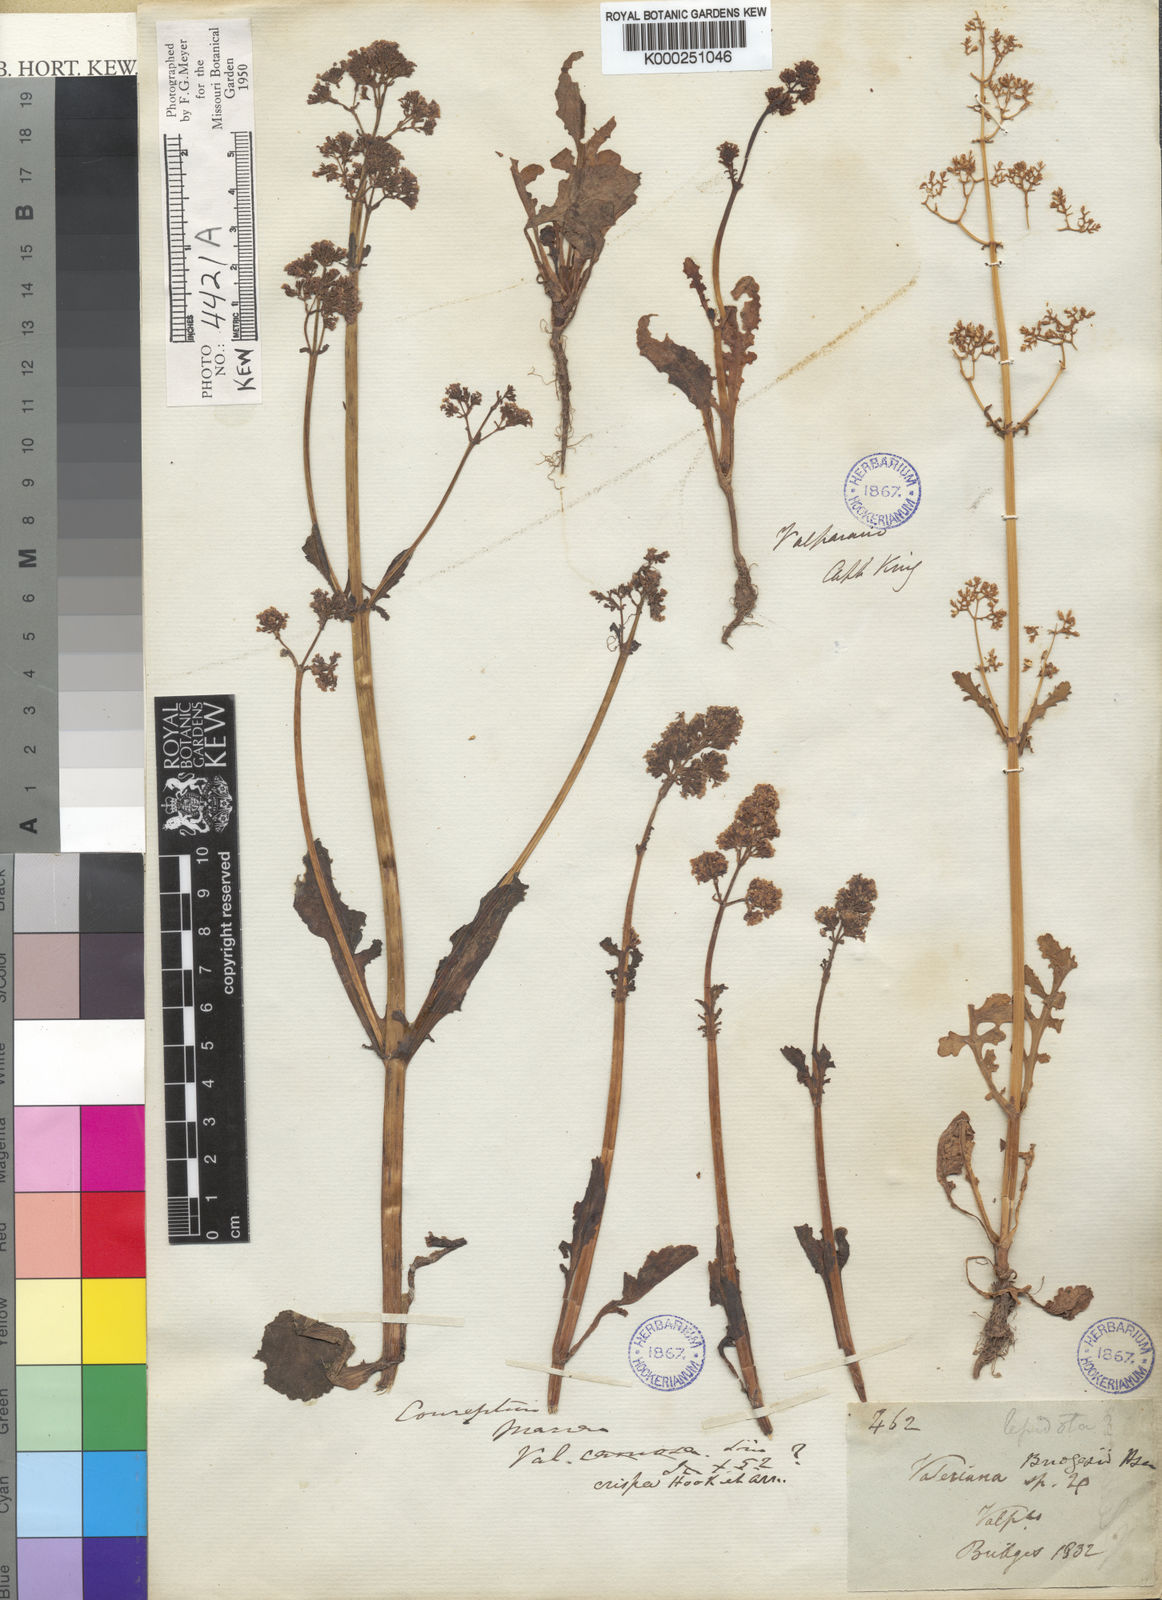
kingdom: Plantae
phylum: Tracheophyta
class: Magnoliopsida
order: Dipsacales
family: Caprifoliaceae
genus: Valeriana
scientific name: Valeriana bridgesii
